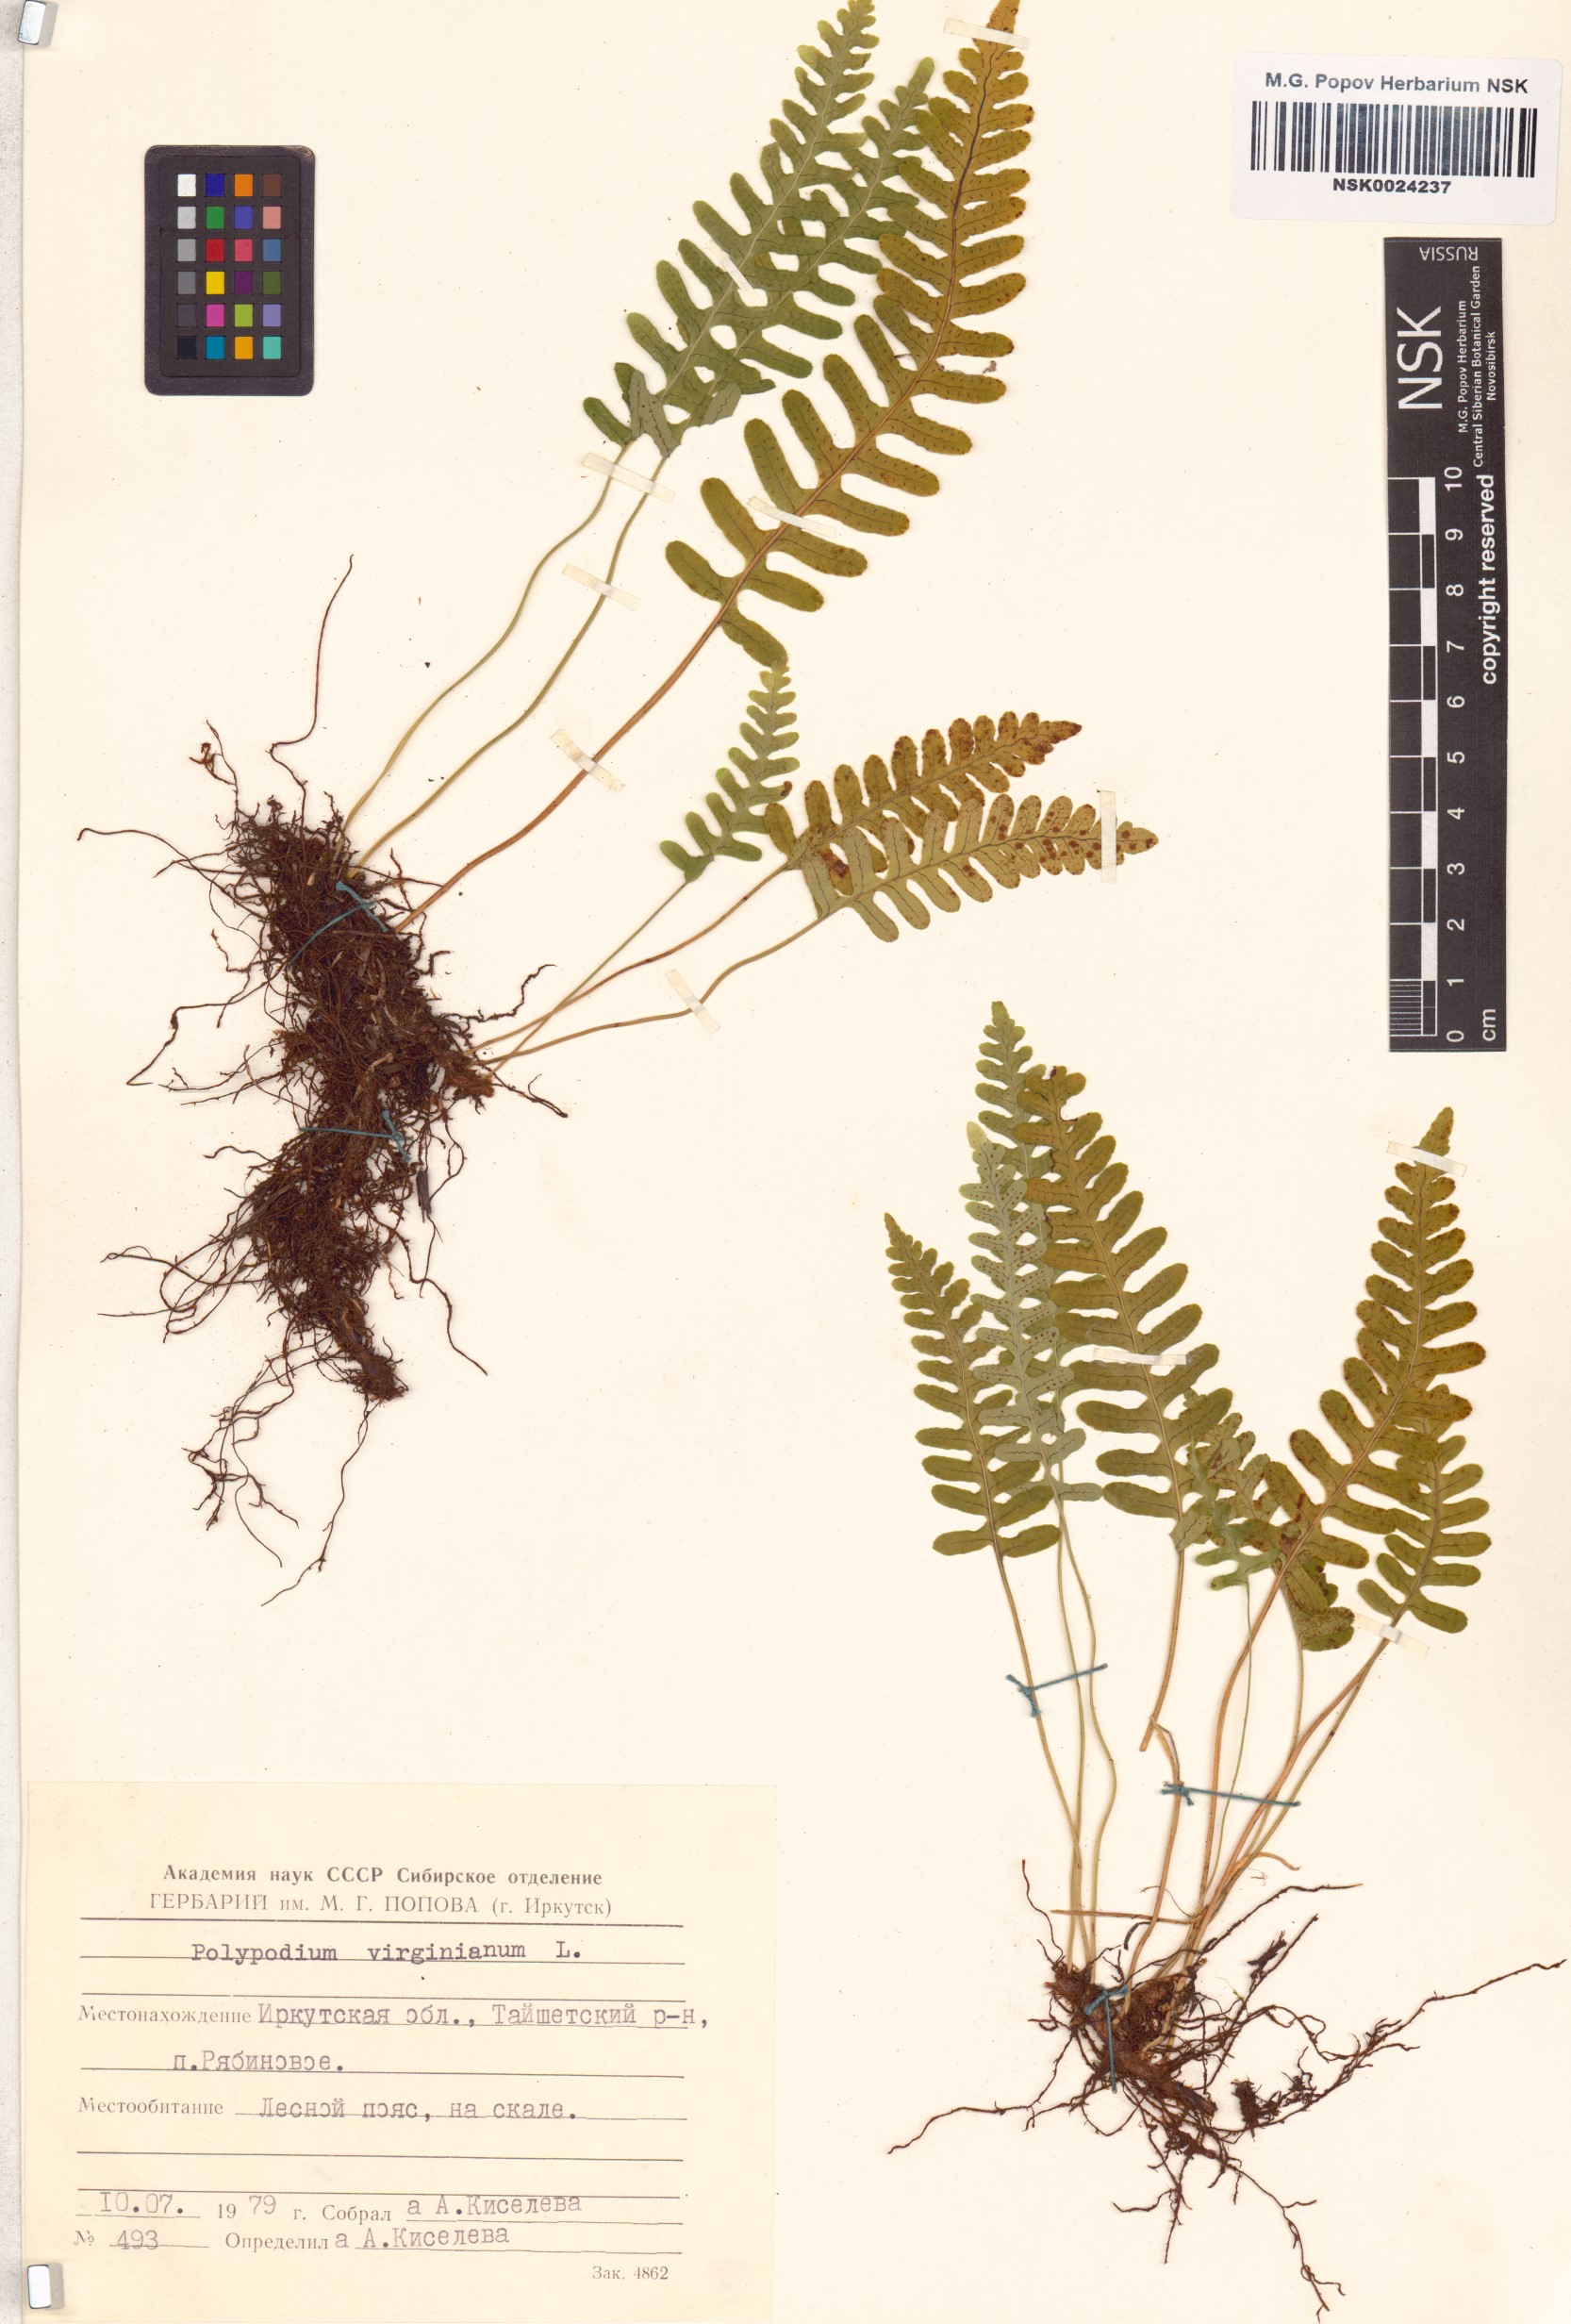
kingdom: Plantae
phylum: Tracheophyta
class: Polypodiopsida
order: Polypodiales
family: Polypodiaceae
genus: Polypodium
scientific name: Polypodium virginianum
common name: American wall fern
